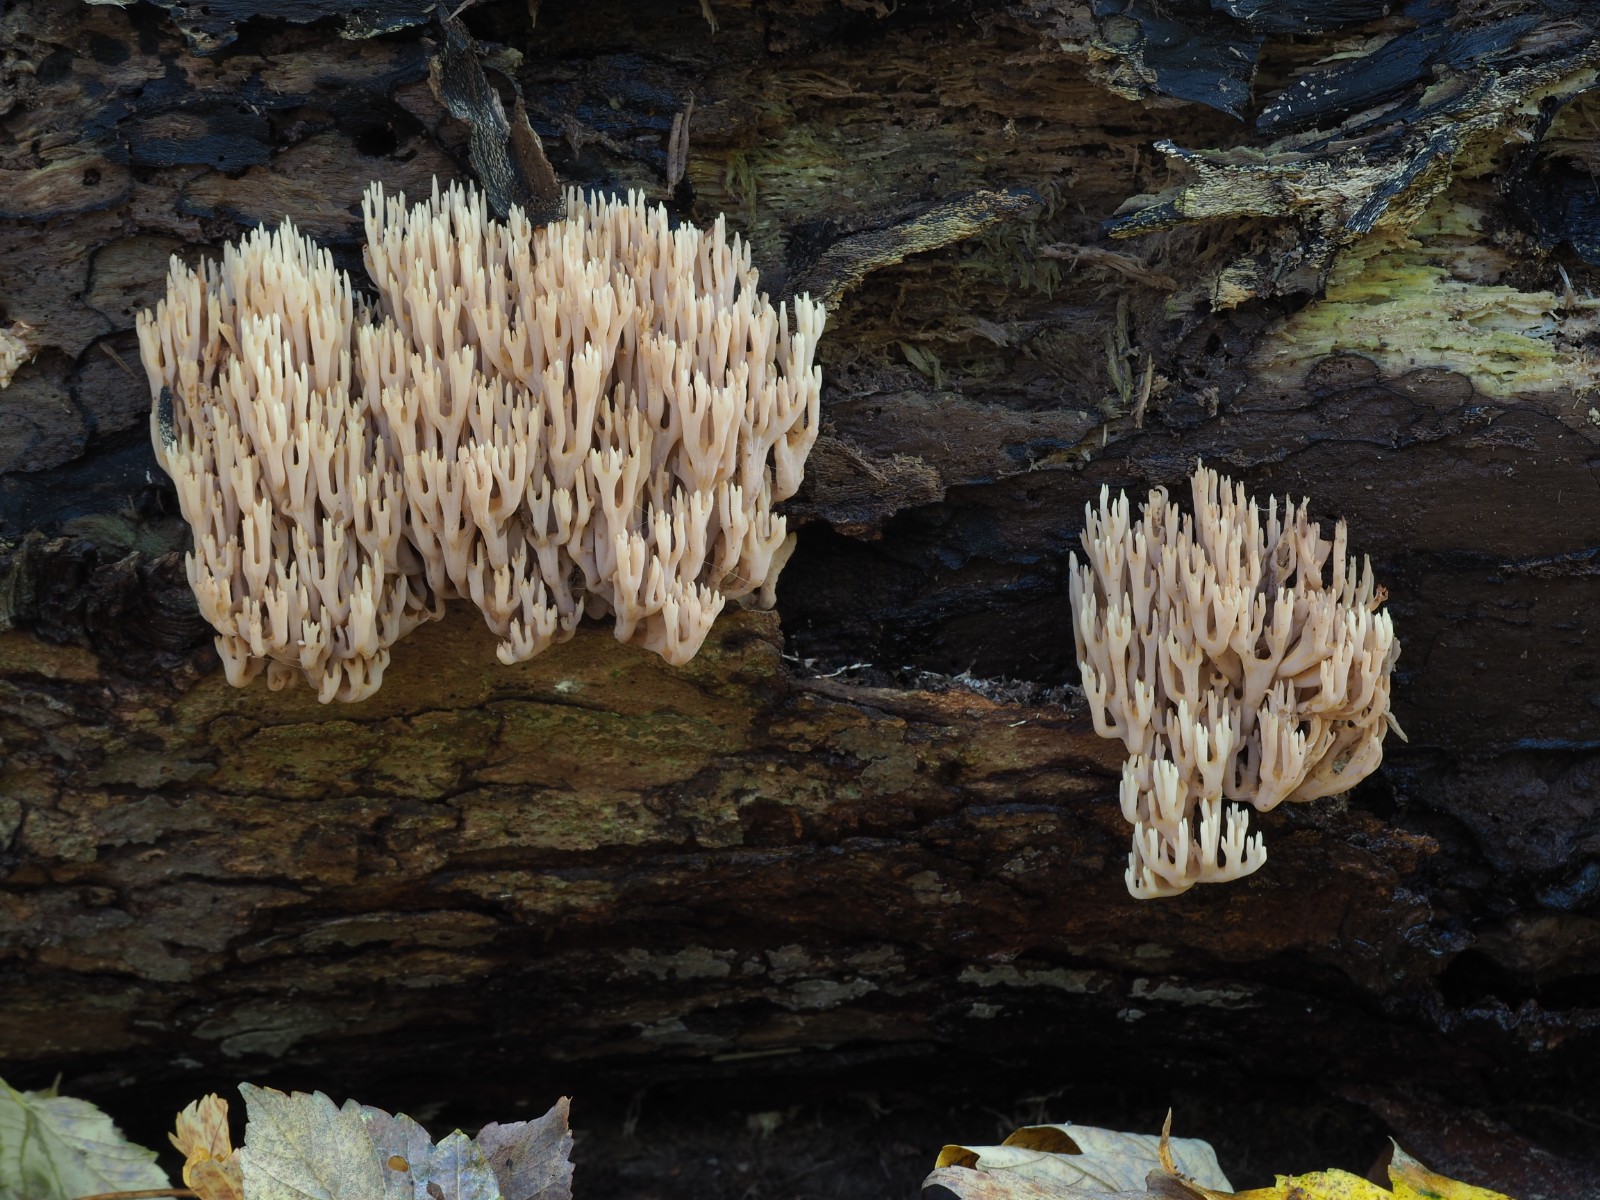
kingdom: Fungi
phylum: Basidiomycota
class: Agaricomycetes
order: Gomphales
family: Gomphaceae
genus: Ramaria
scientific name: Ramaria stricta
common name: rank koralsvamp
